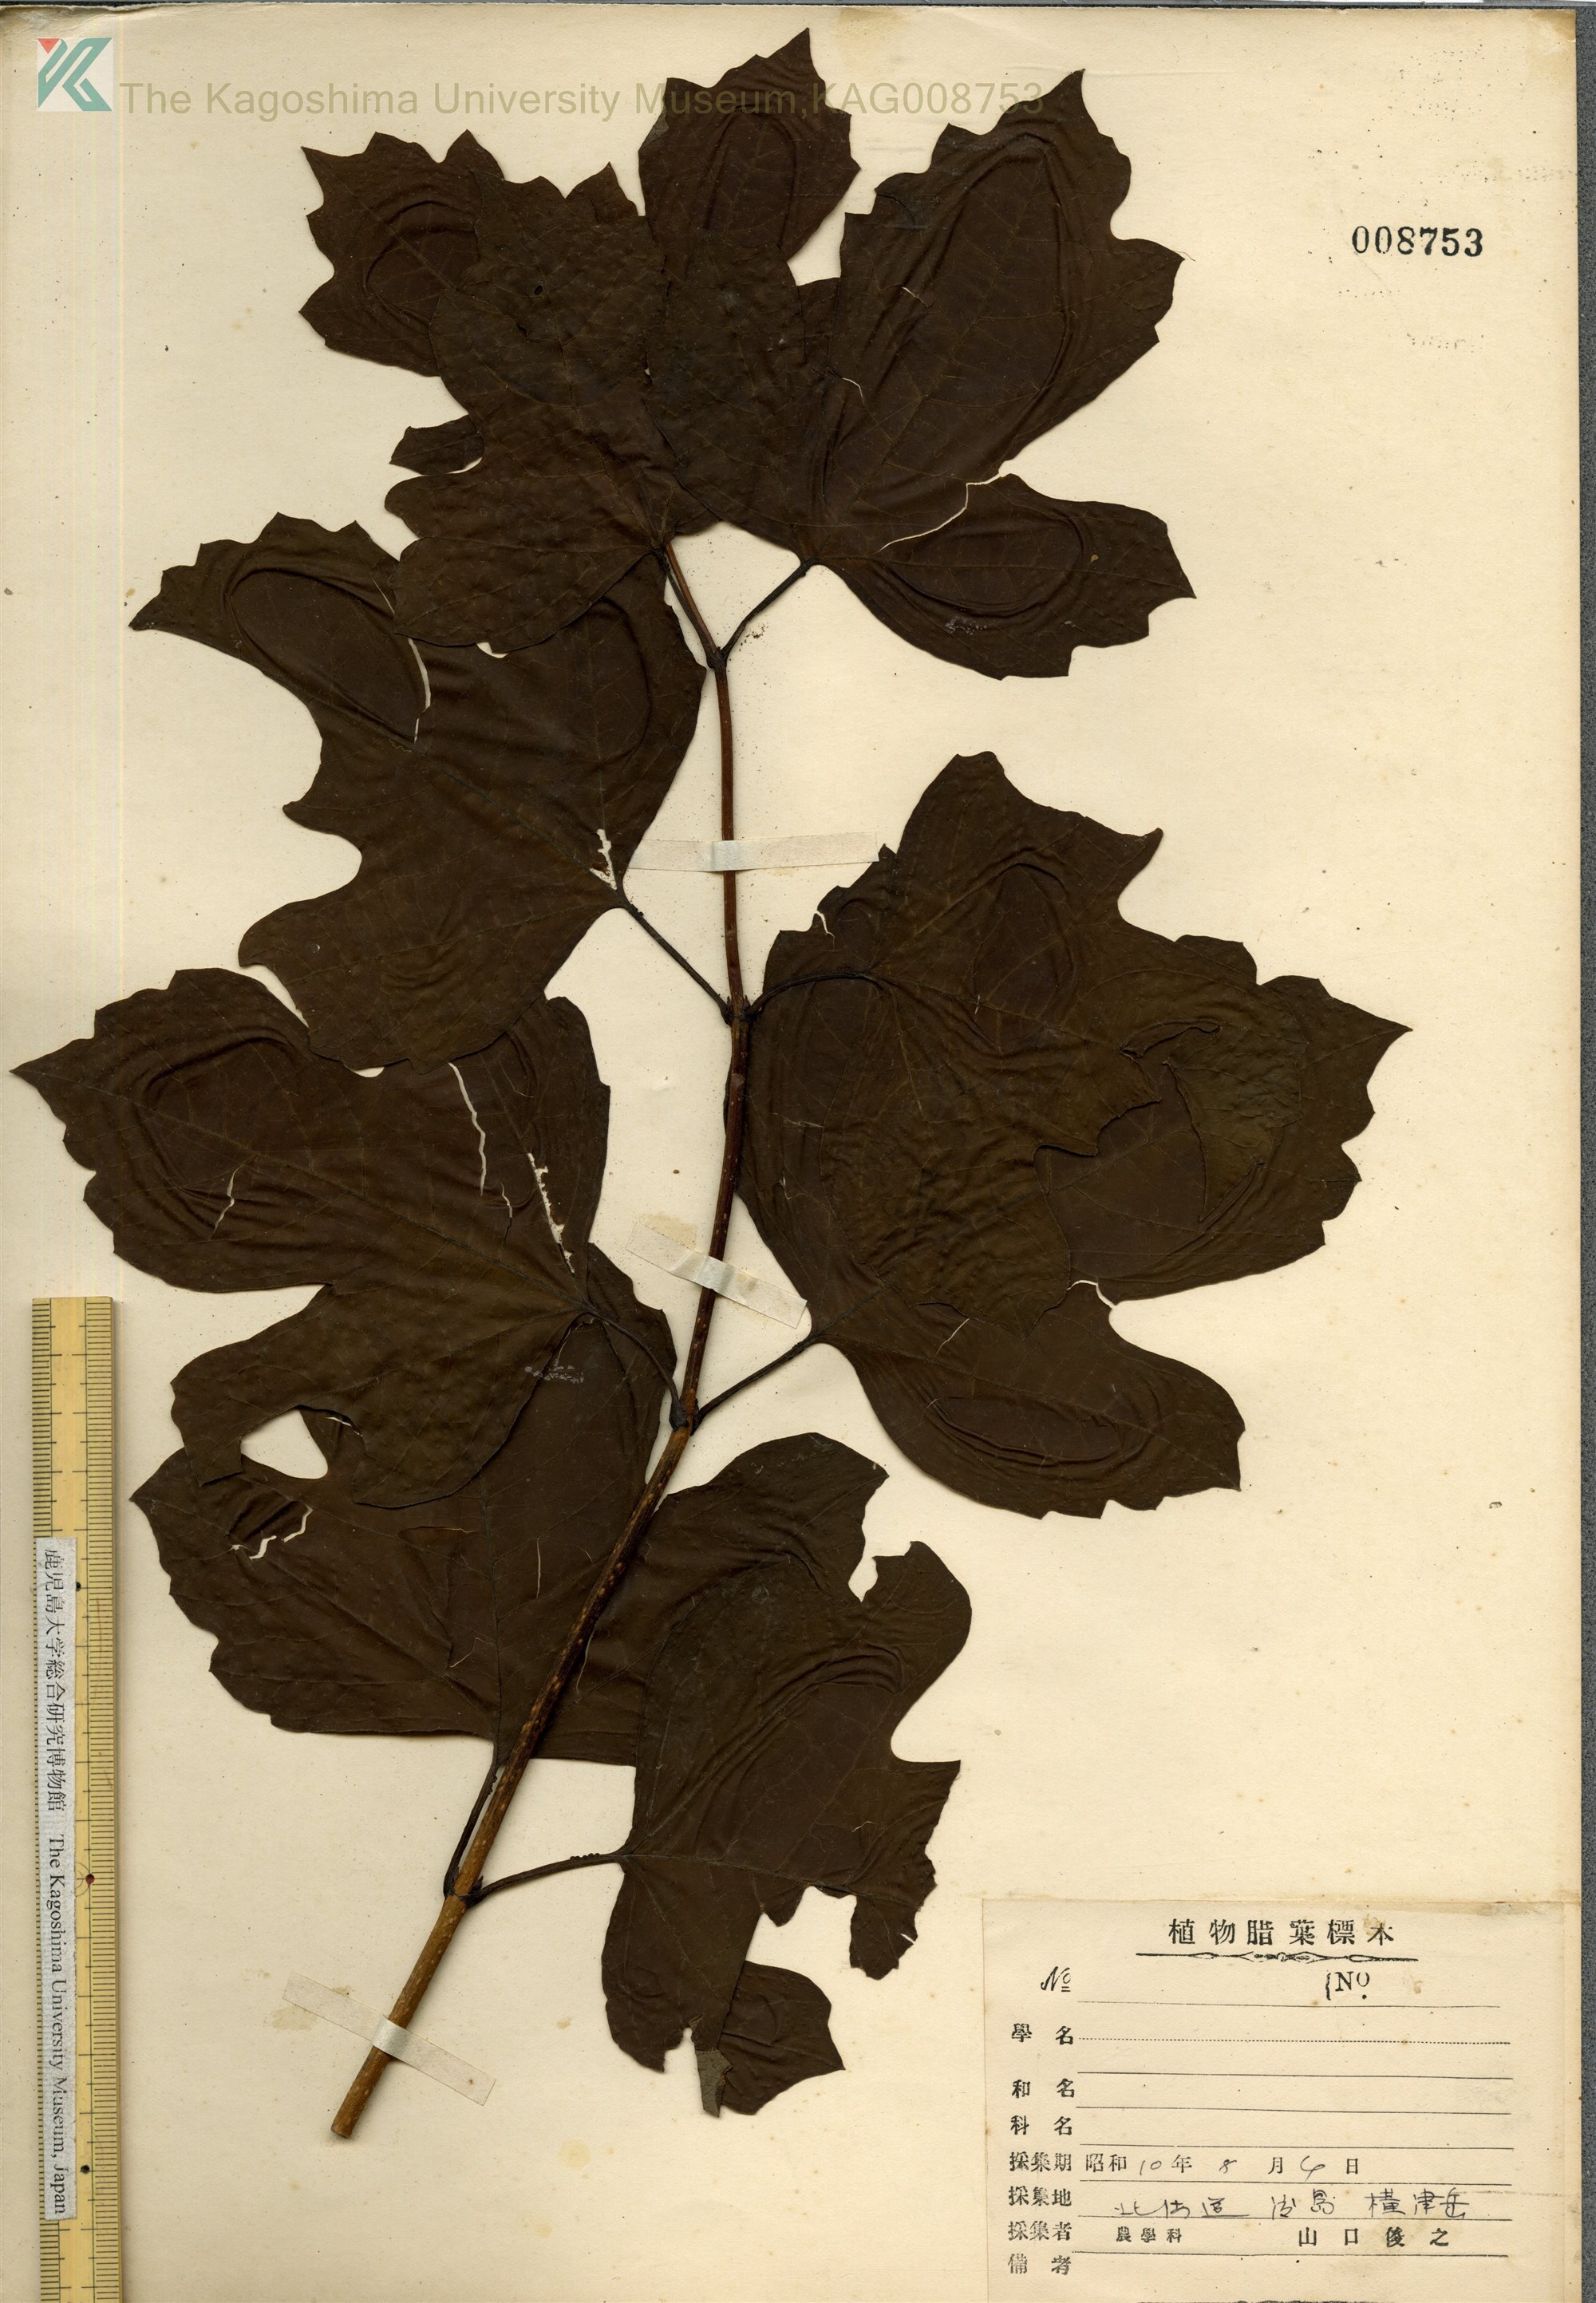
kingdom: Plantae
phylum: Tracheophyta
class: Magnoliopsida
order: Dipsacales
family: Viburnaceae
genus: Viburnum
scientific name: Viburnum opulus
